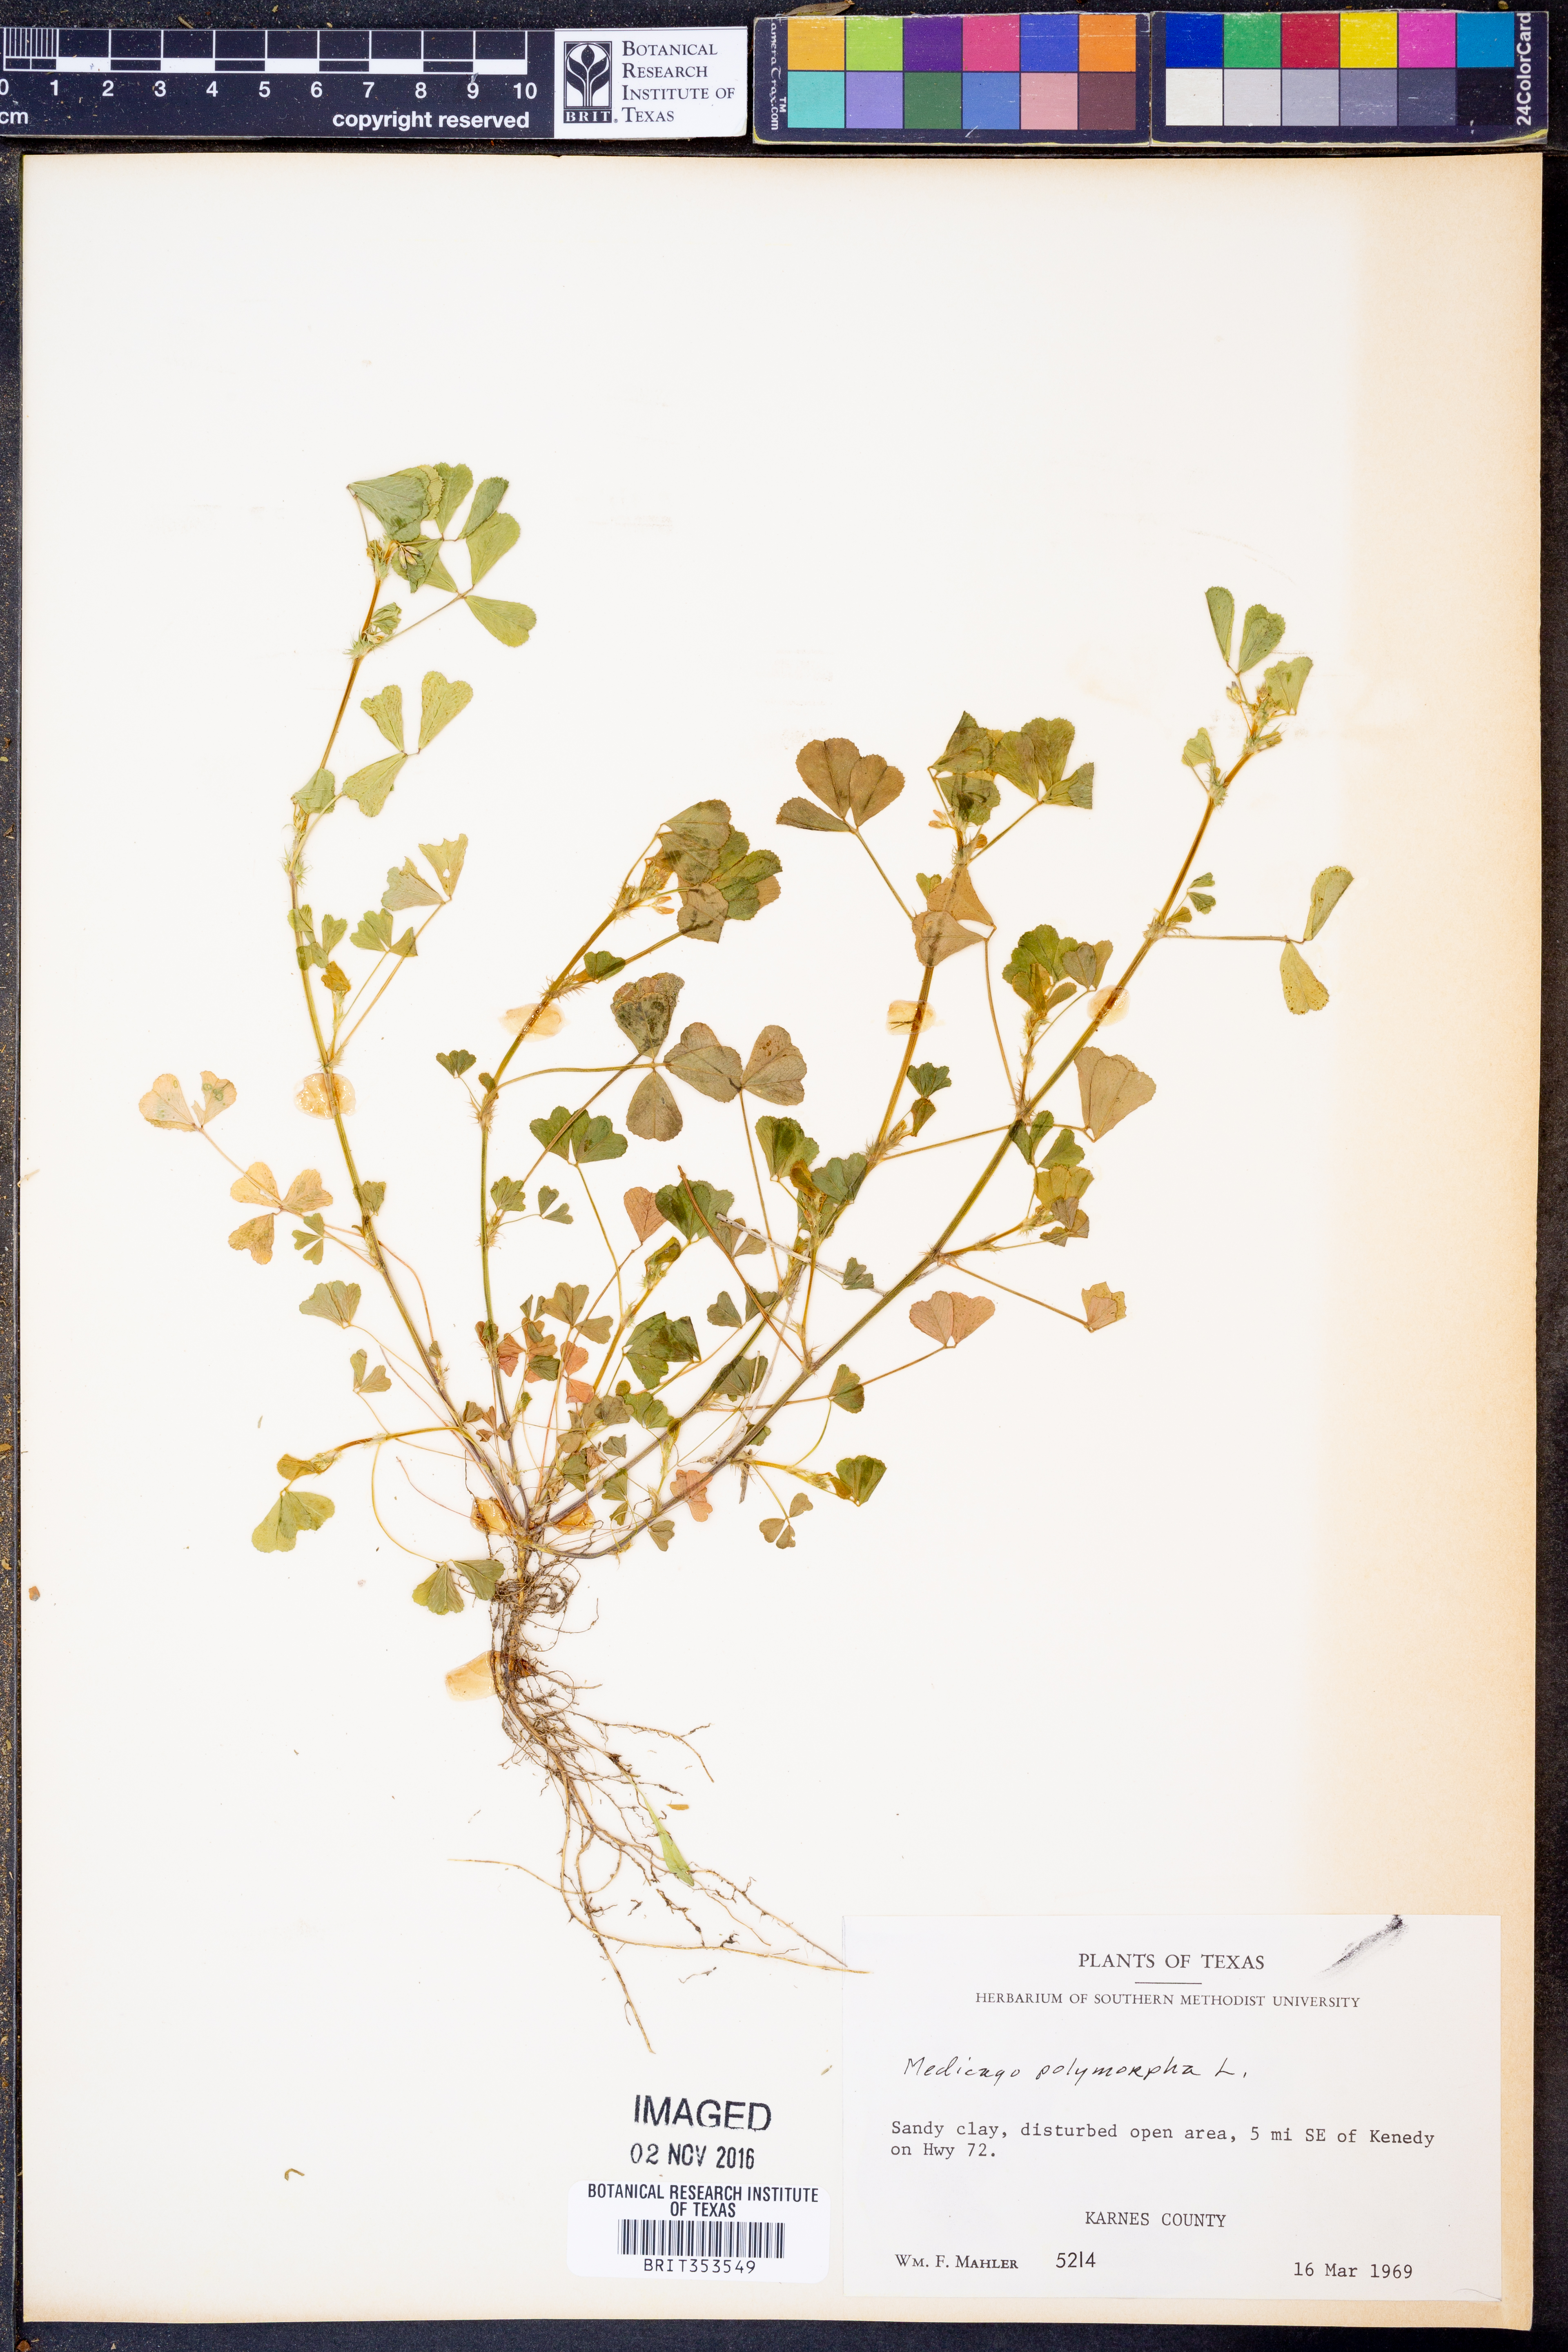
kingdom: Plantae
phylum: Tracheophyta
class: Magnoliopsida
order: Fabales
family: Fabaceae
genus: Medicago
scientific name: Medicago polymorpha
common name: Burclover
